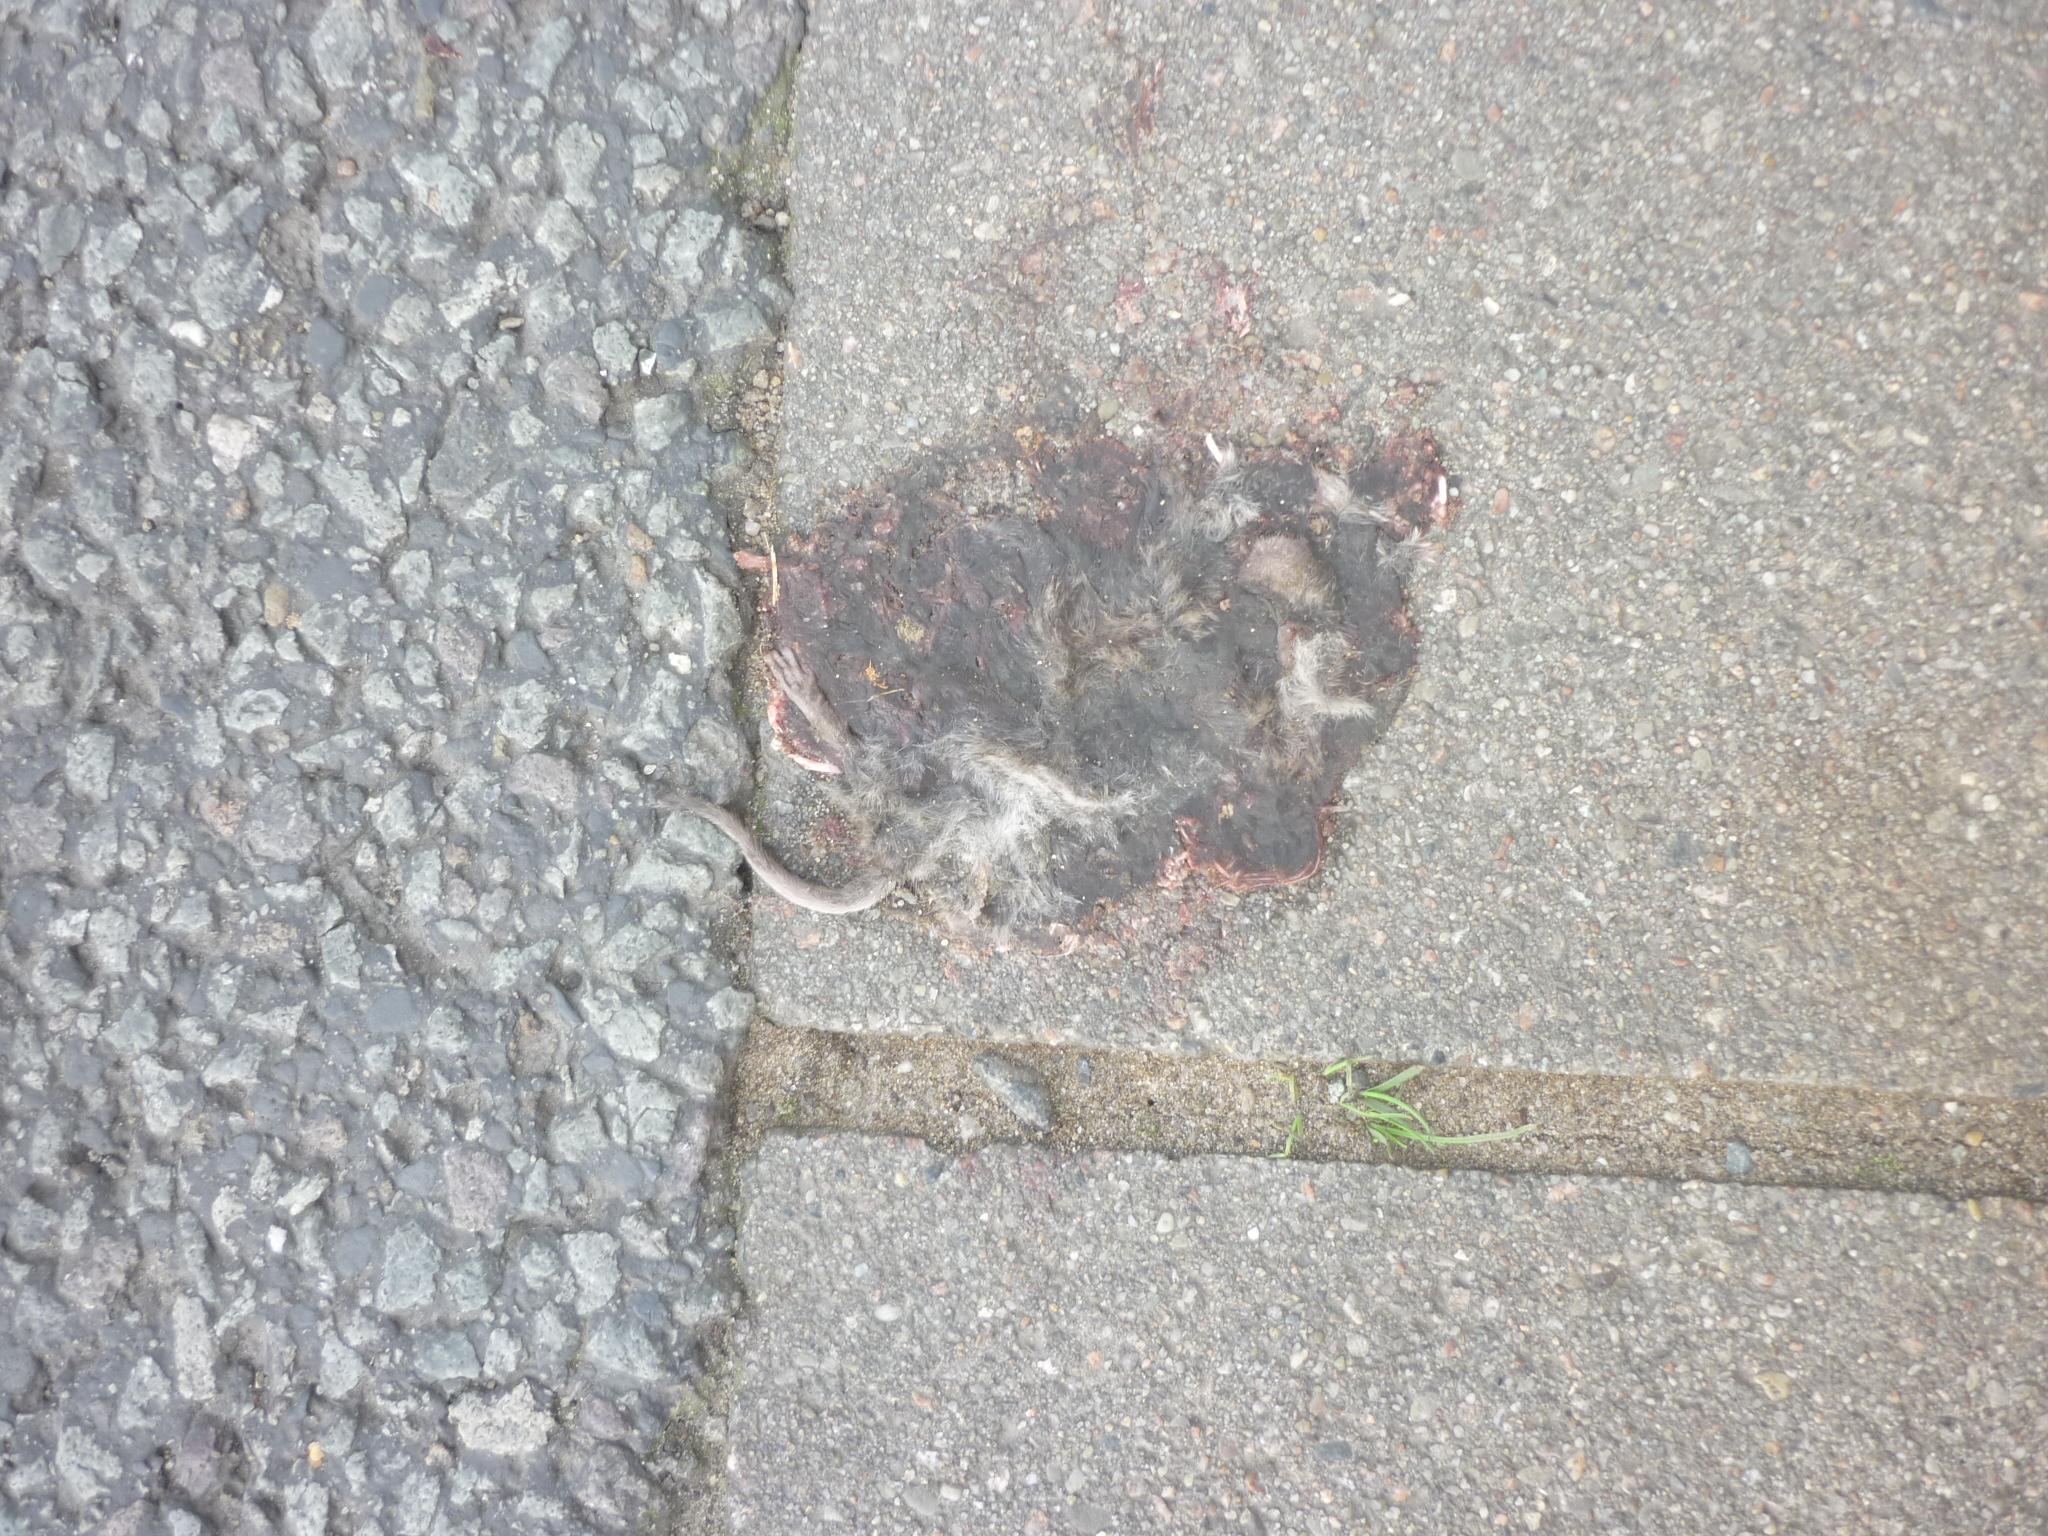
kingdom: Animalia
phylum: Chordata
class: Mammalia
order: Rodentia
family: Cricetidae
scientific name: Cricetidae
